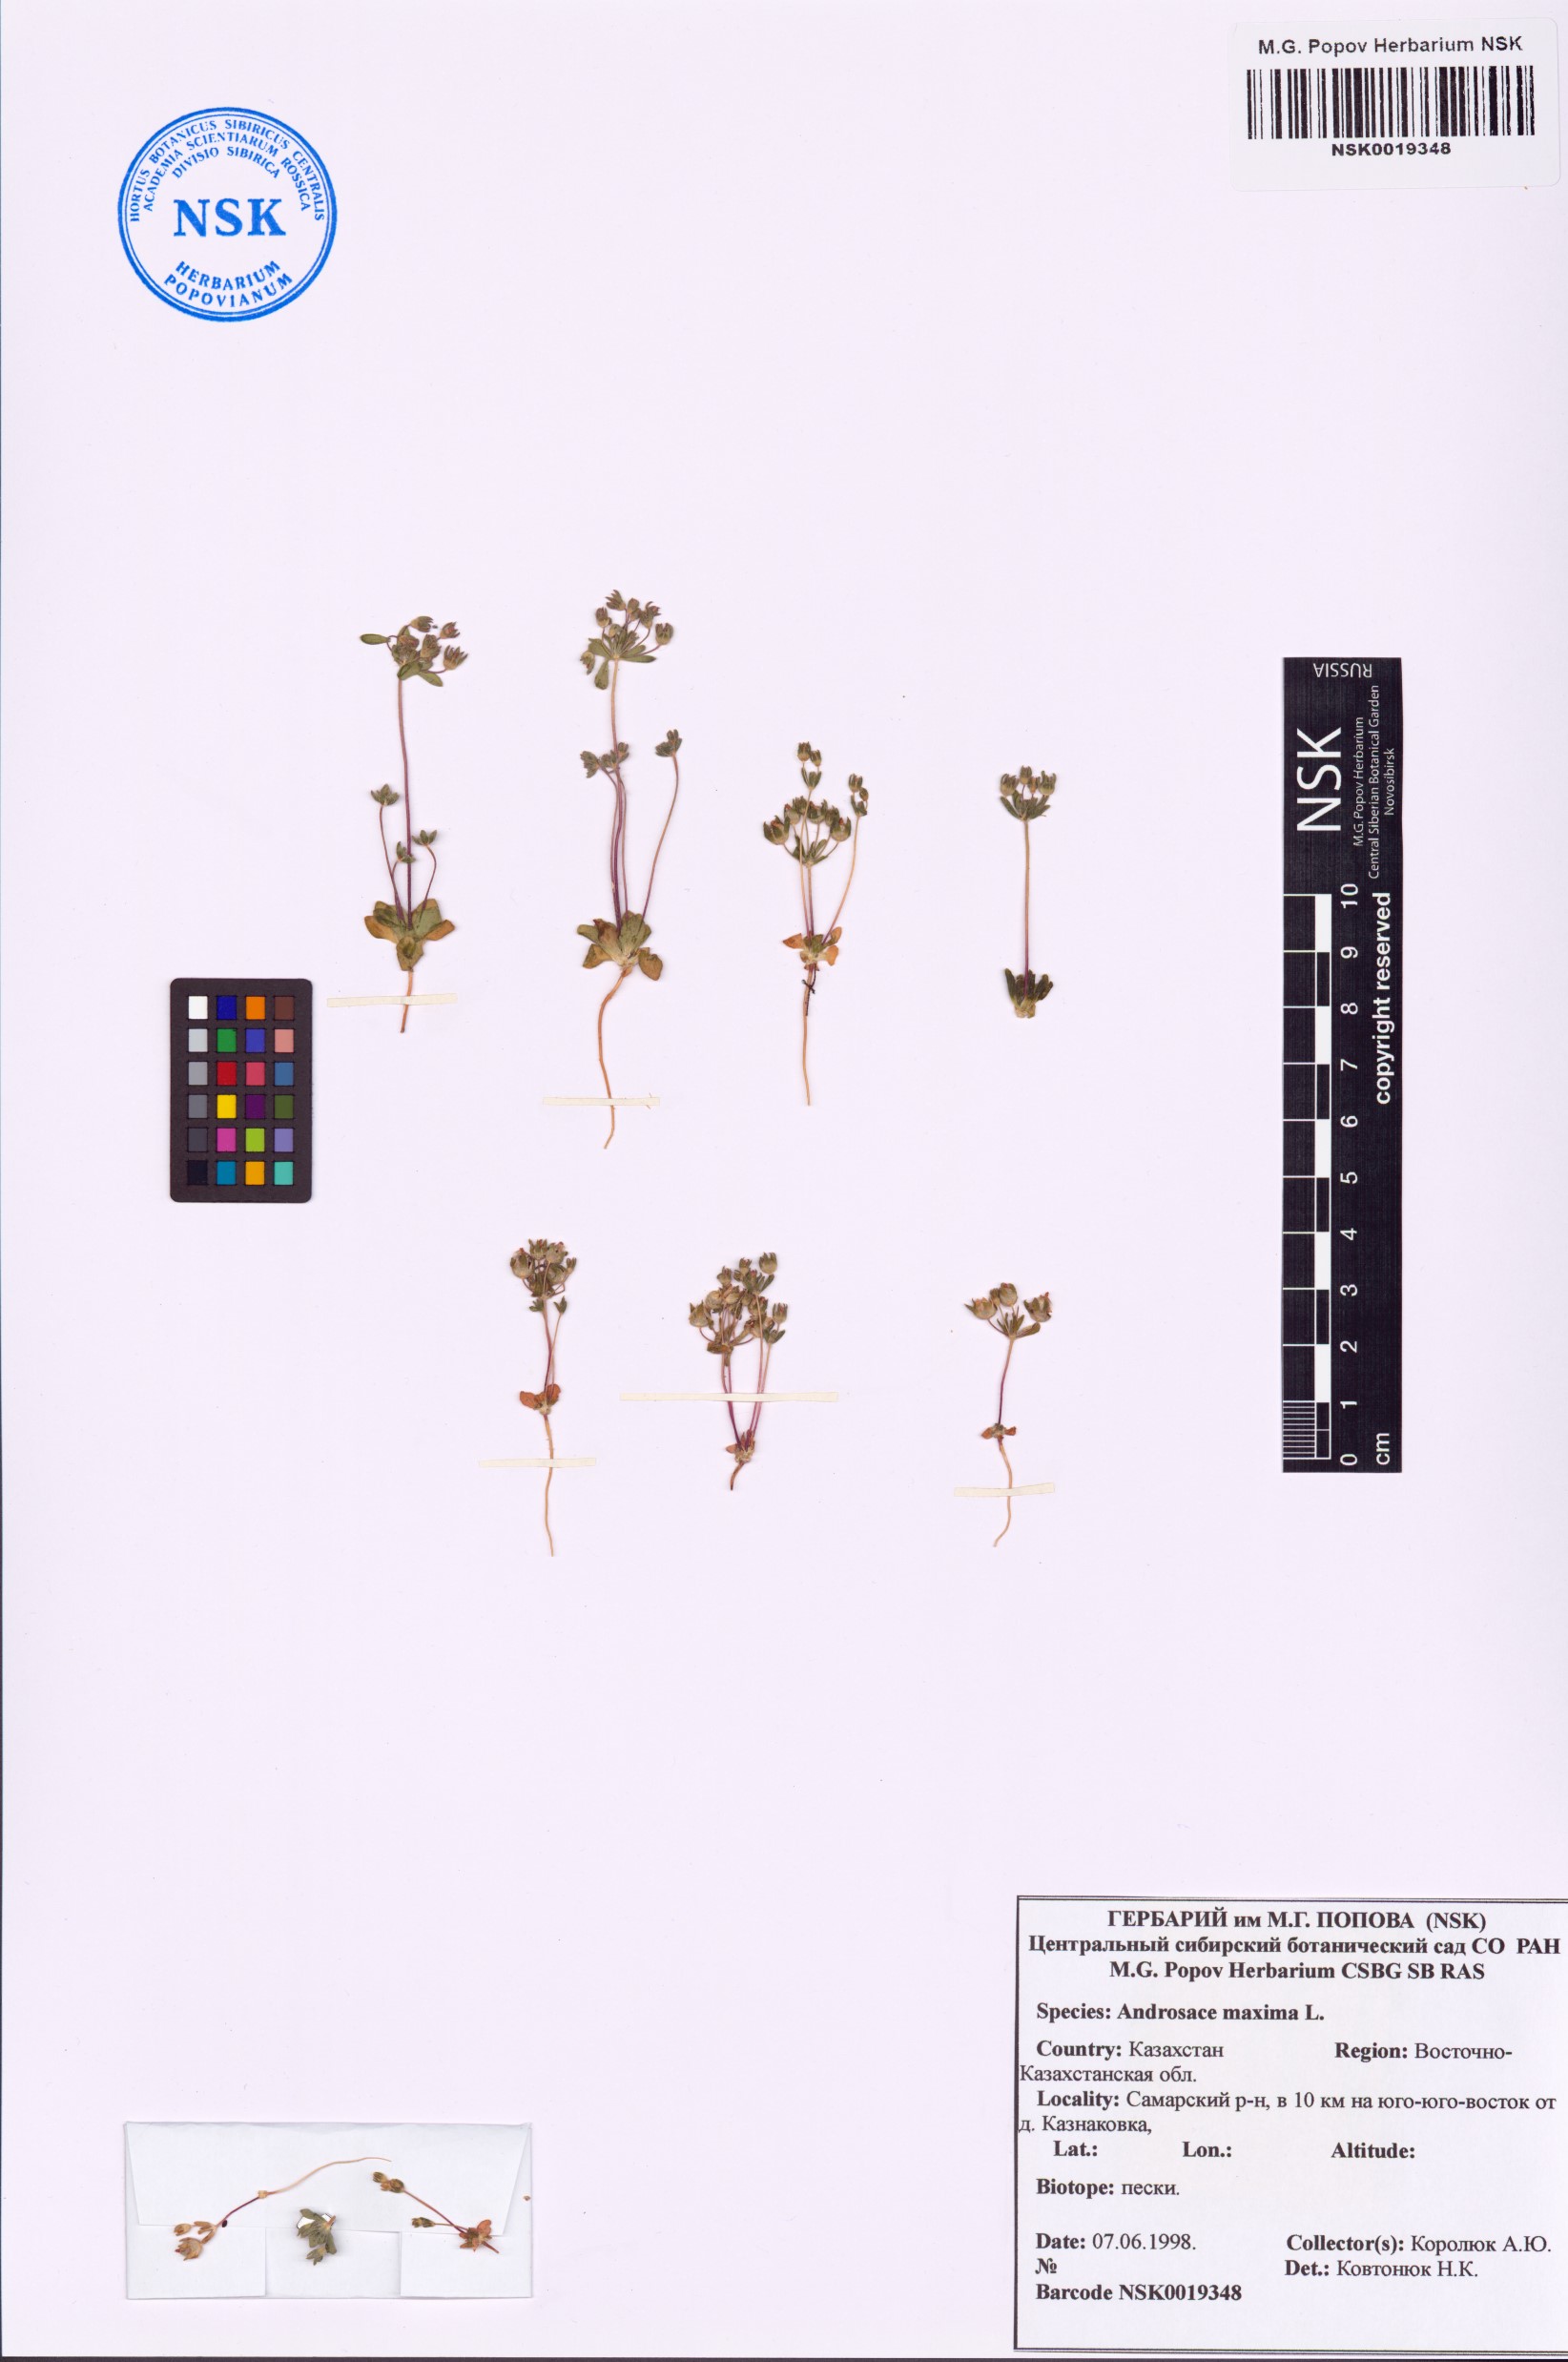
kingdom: Plantae
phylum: Tracheophyta
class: Magnoliopsida
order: Ericales
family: Primulaceae
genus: Androsace
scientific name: Androsace maxima
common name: Annual androsace
